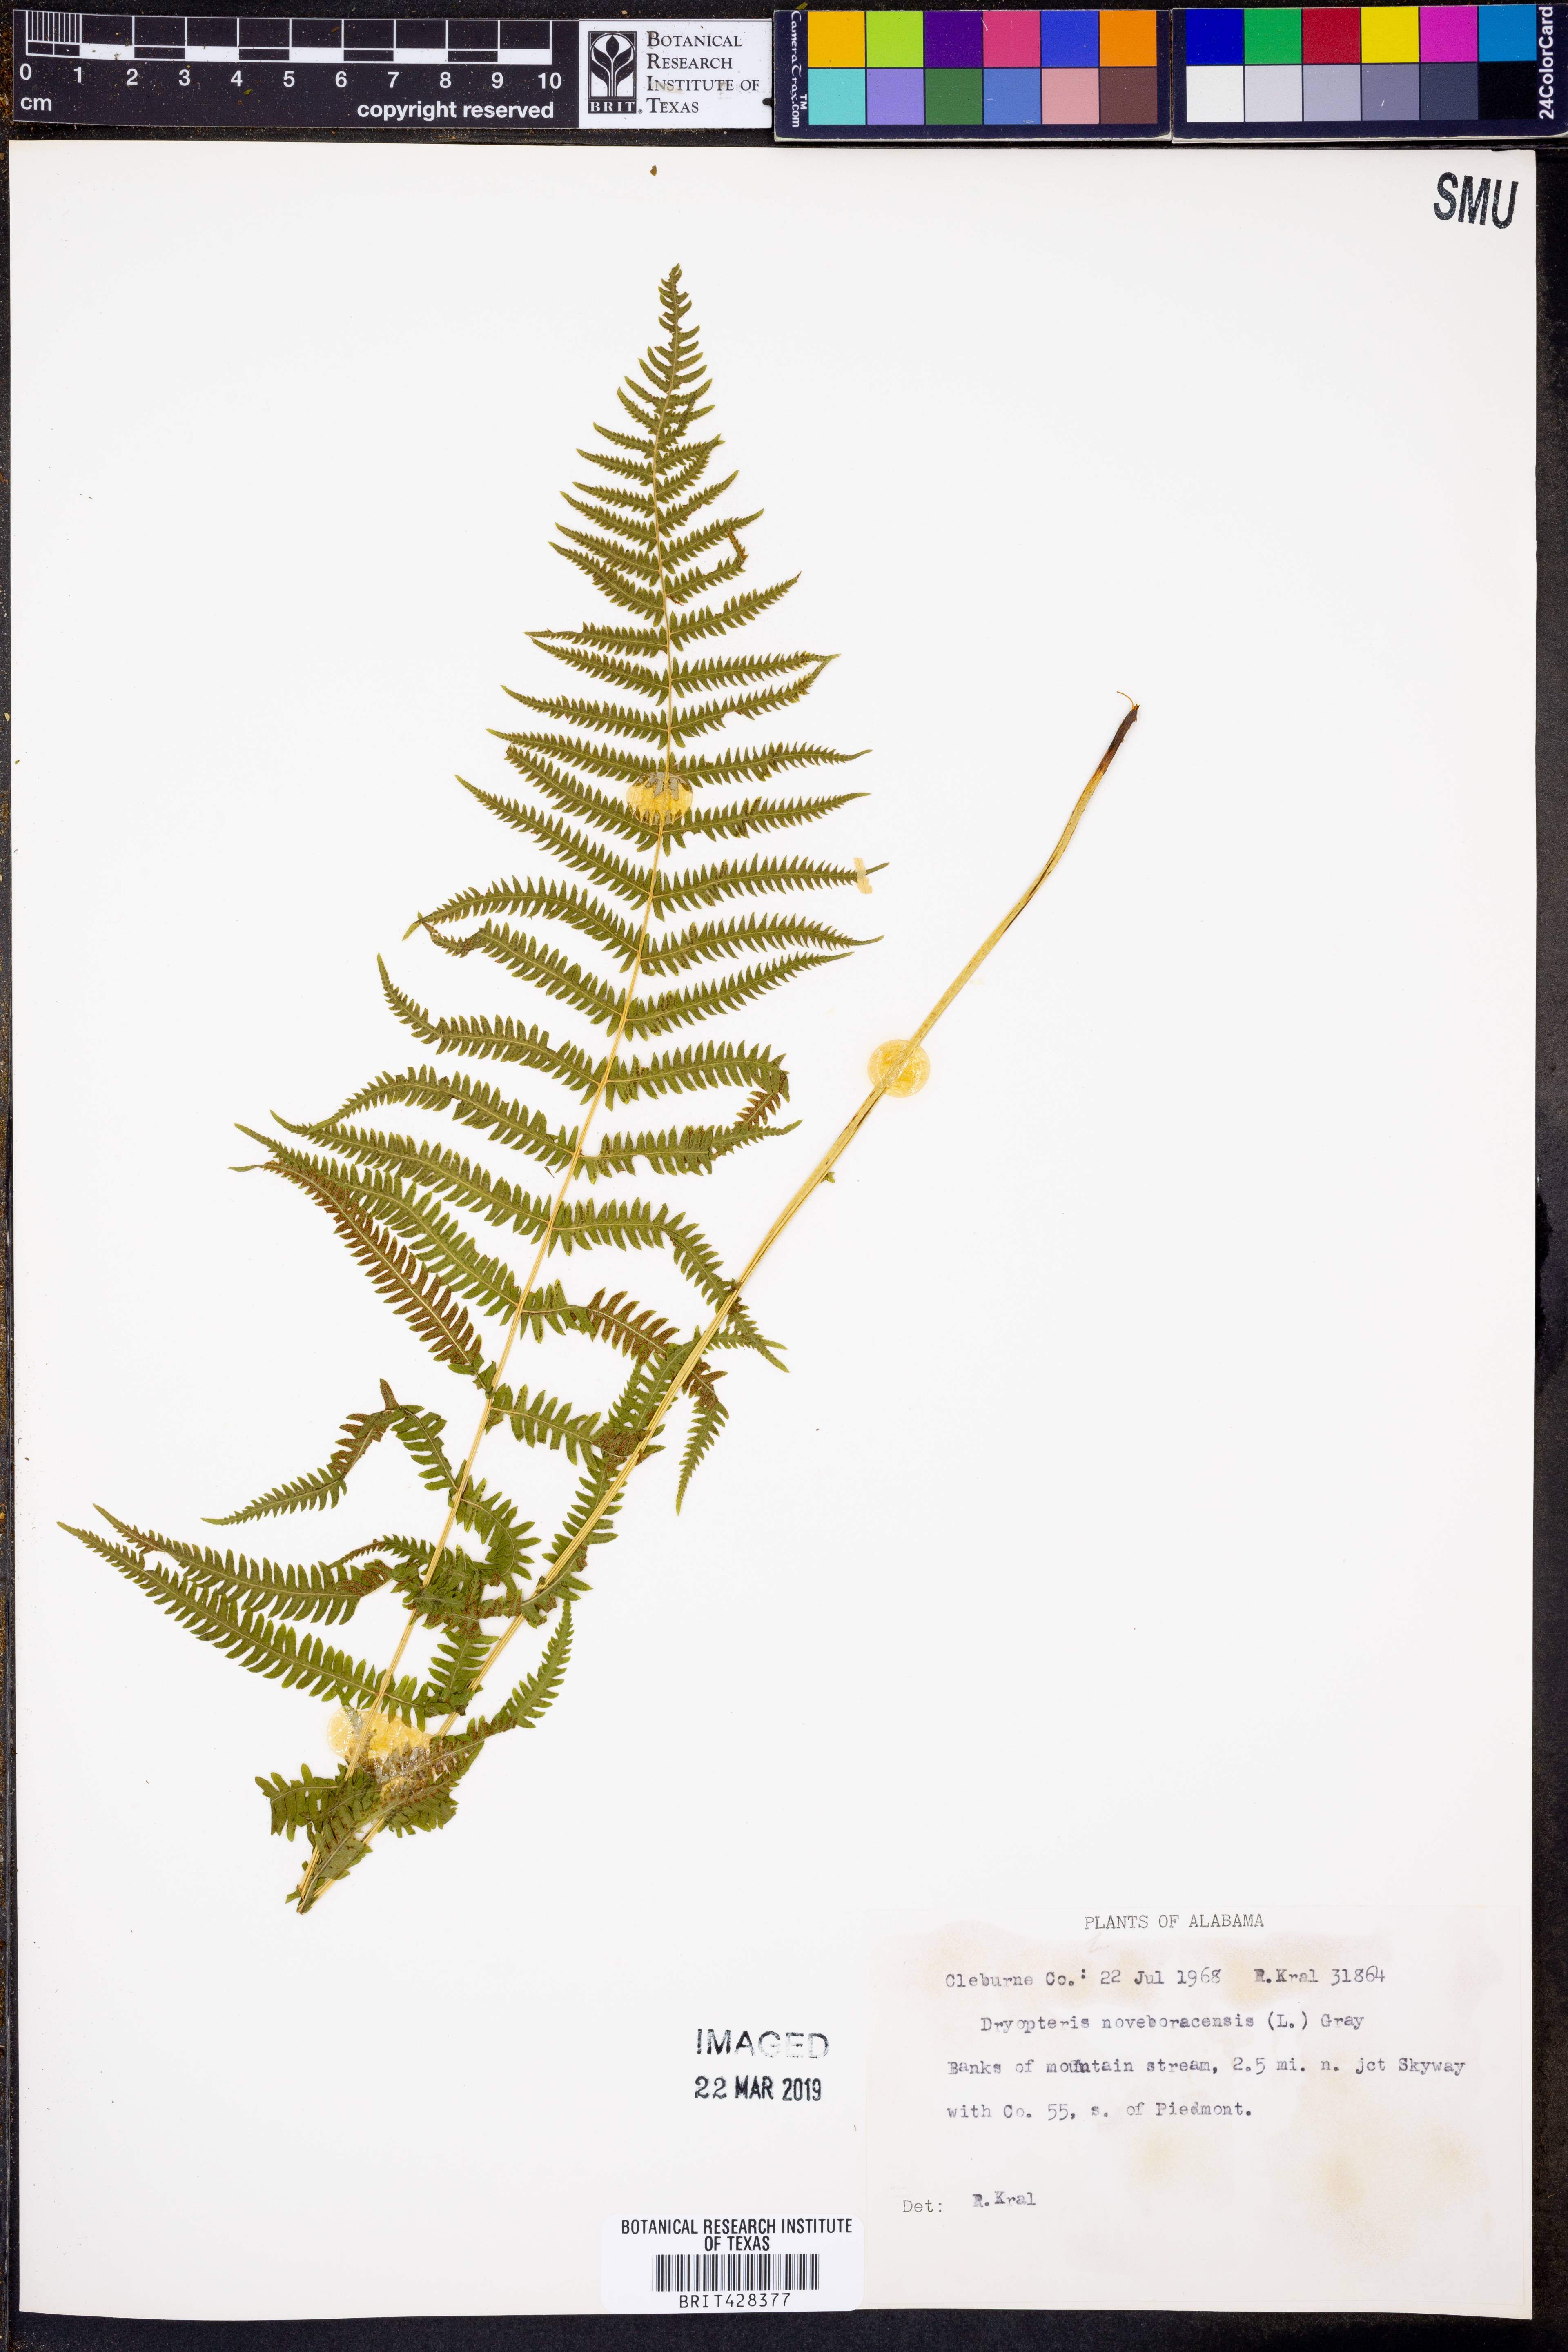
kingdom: Plantae
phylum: Tracheophyta
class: Polypodiopsida
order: Polypodiales
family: Thelypteridaceae
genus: Amauropelta
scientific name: Amauropelta noveboracensis
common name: New york fern
